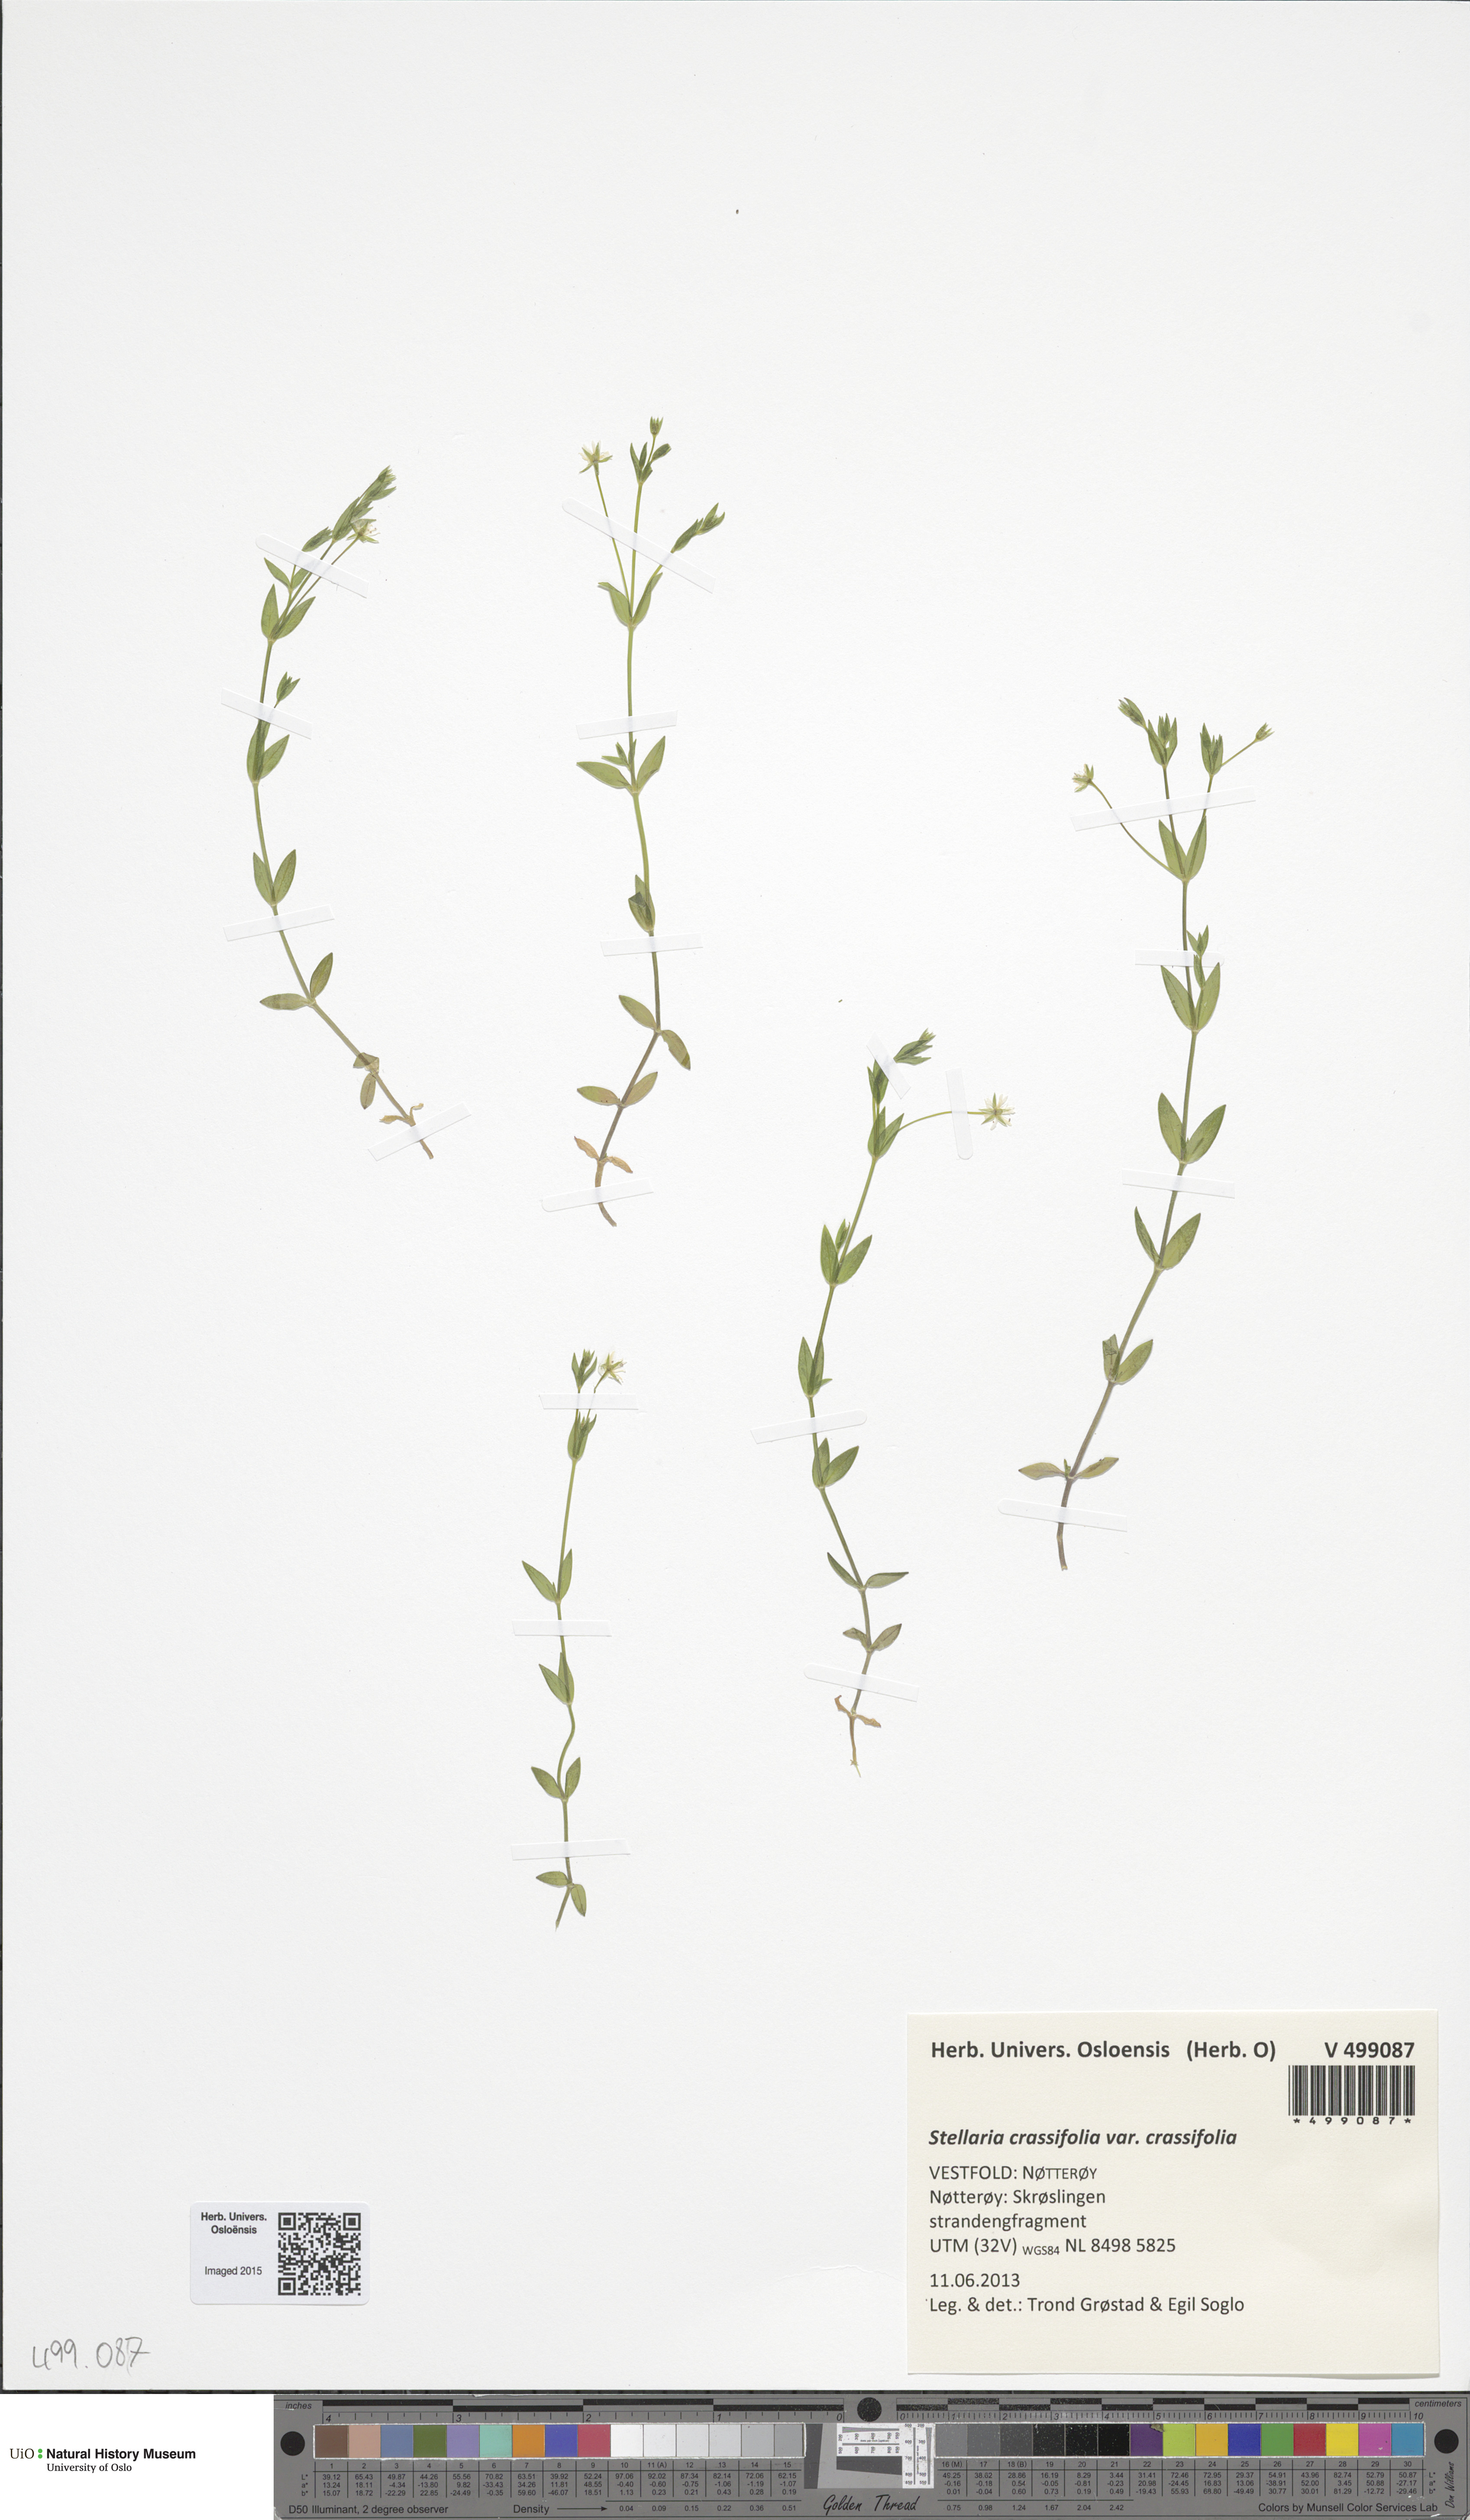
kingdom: Plantae
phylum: Tracheophyta
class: Magnoliopsida
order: Caryophyllales
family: Caryophyllaceae
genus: Stellaria
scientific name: Stellaria crassifolia
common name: Fleshy starwort
